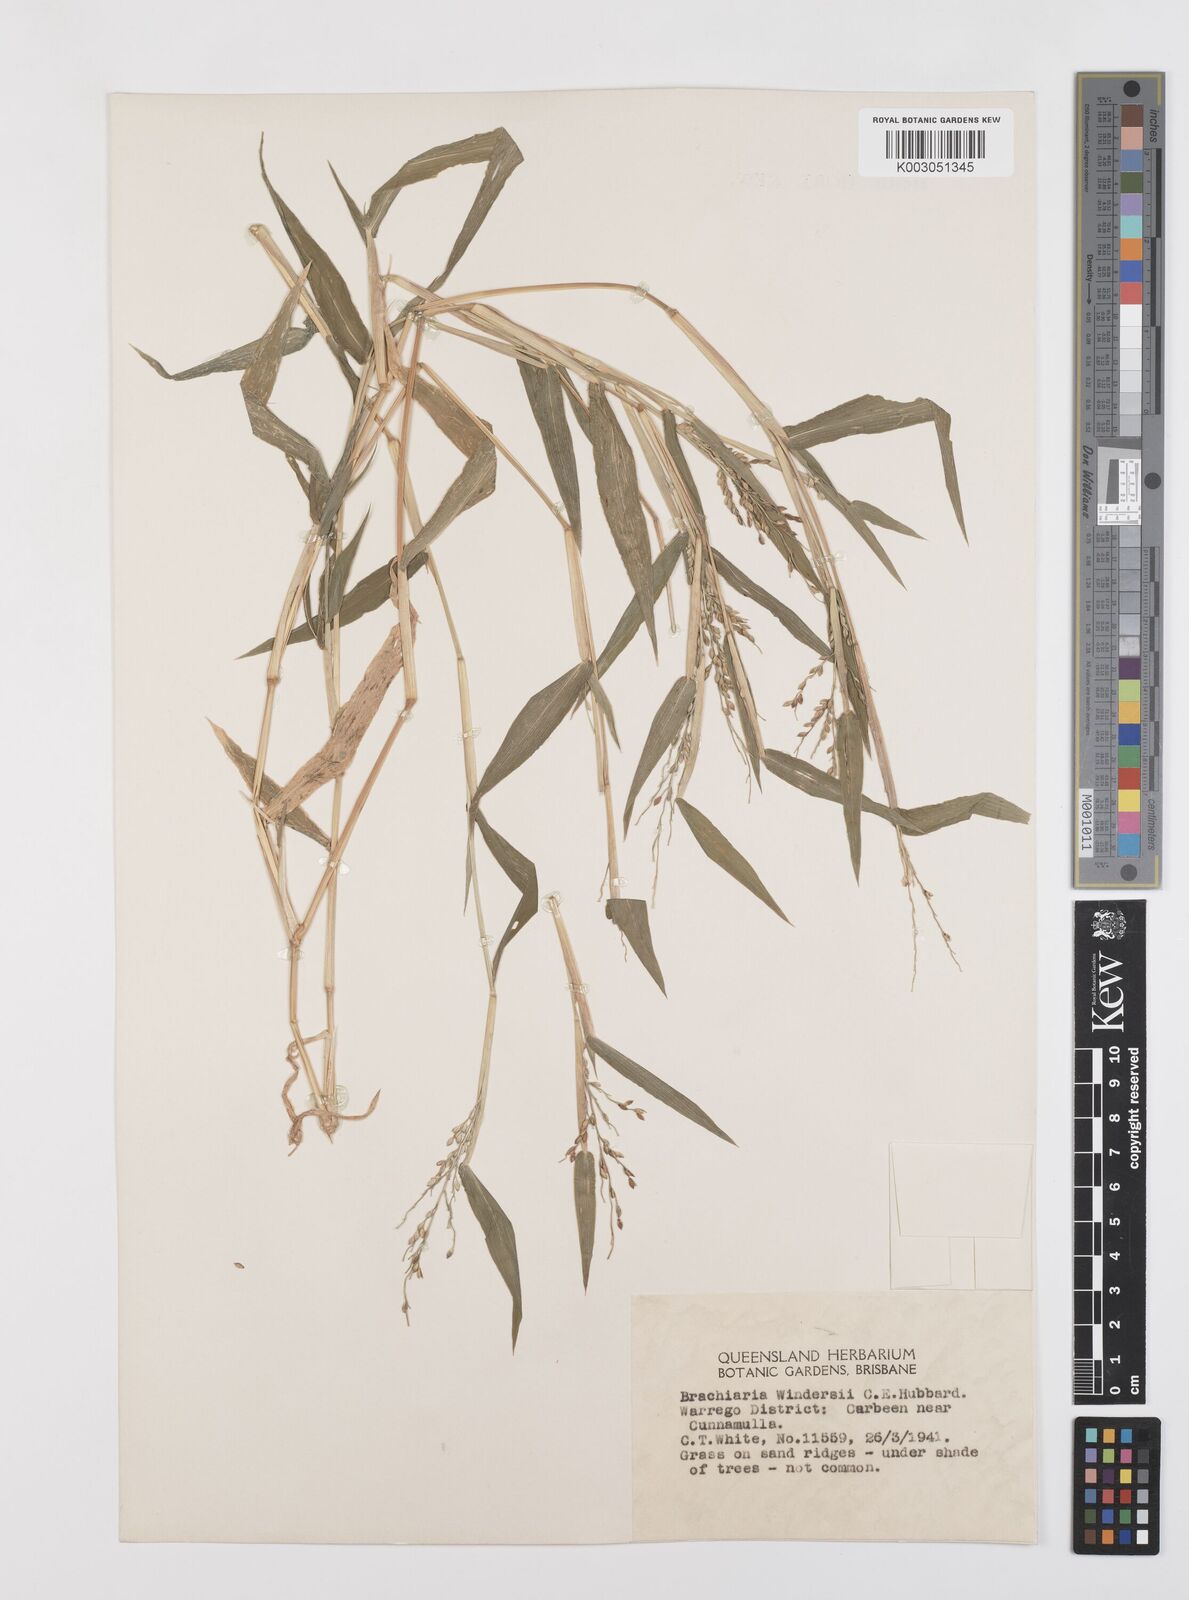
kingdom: Plantae
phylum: Tracheophyta
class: Liliopsida
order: Poales
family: Poaceae
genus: Urochloa
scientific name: Urochloa whiteana
